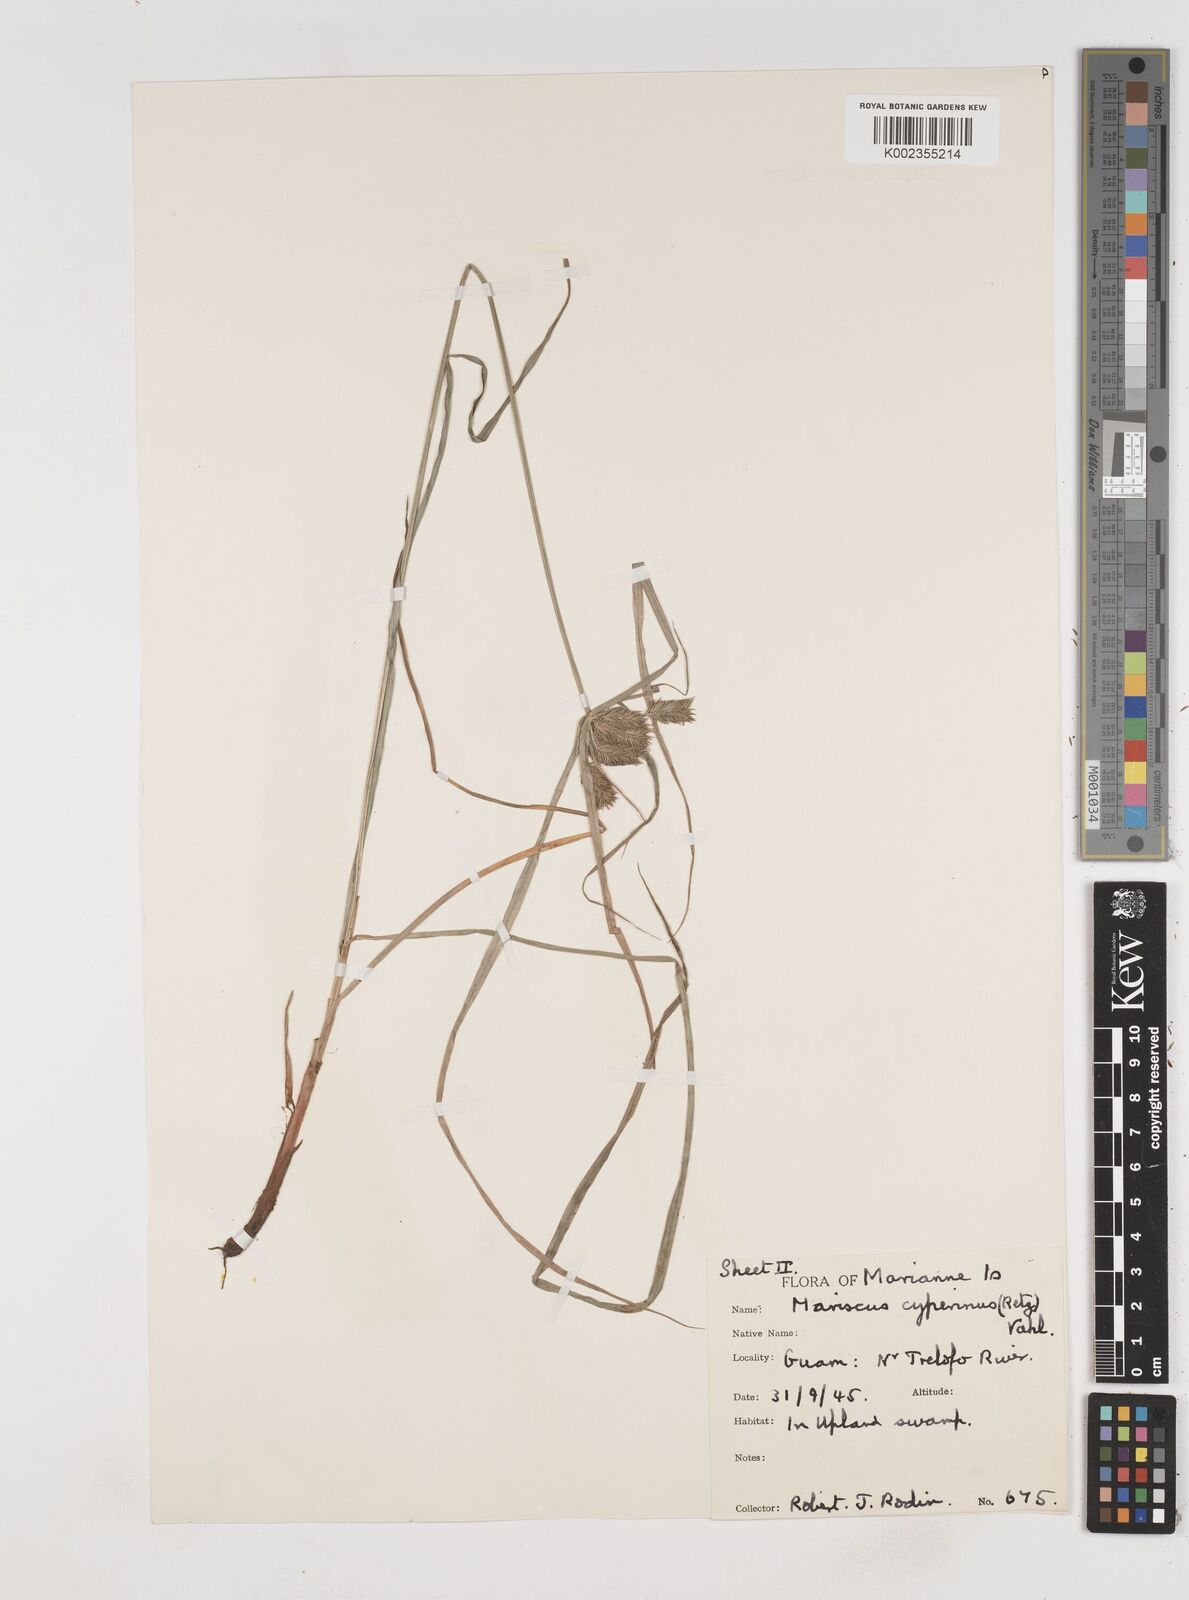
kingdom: Plantae
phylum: Tracheophyta
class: Liliopsida
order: Poales
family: Cyperaceae
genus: Cyperus
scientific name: Cyperus cyperinus
